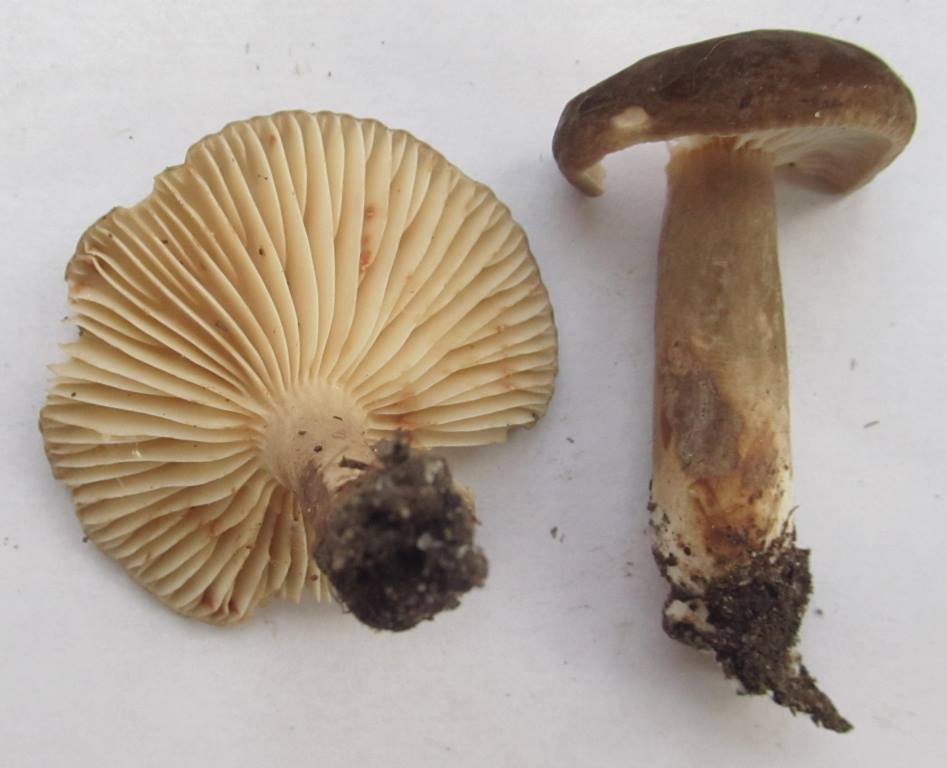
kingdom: Fungi
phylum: Basidiomycota
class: Agaricomycetes
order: Russulales
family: Russulaceae
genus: Lactarius
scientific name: Lactarius fuliginosus
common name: sodbrun mælkehat
